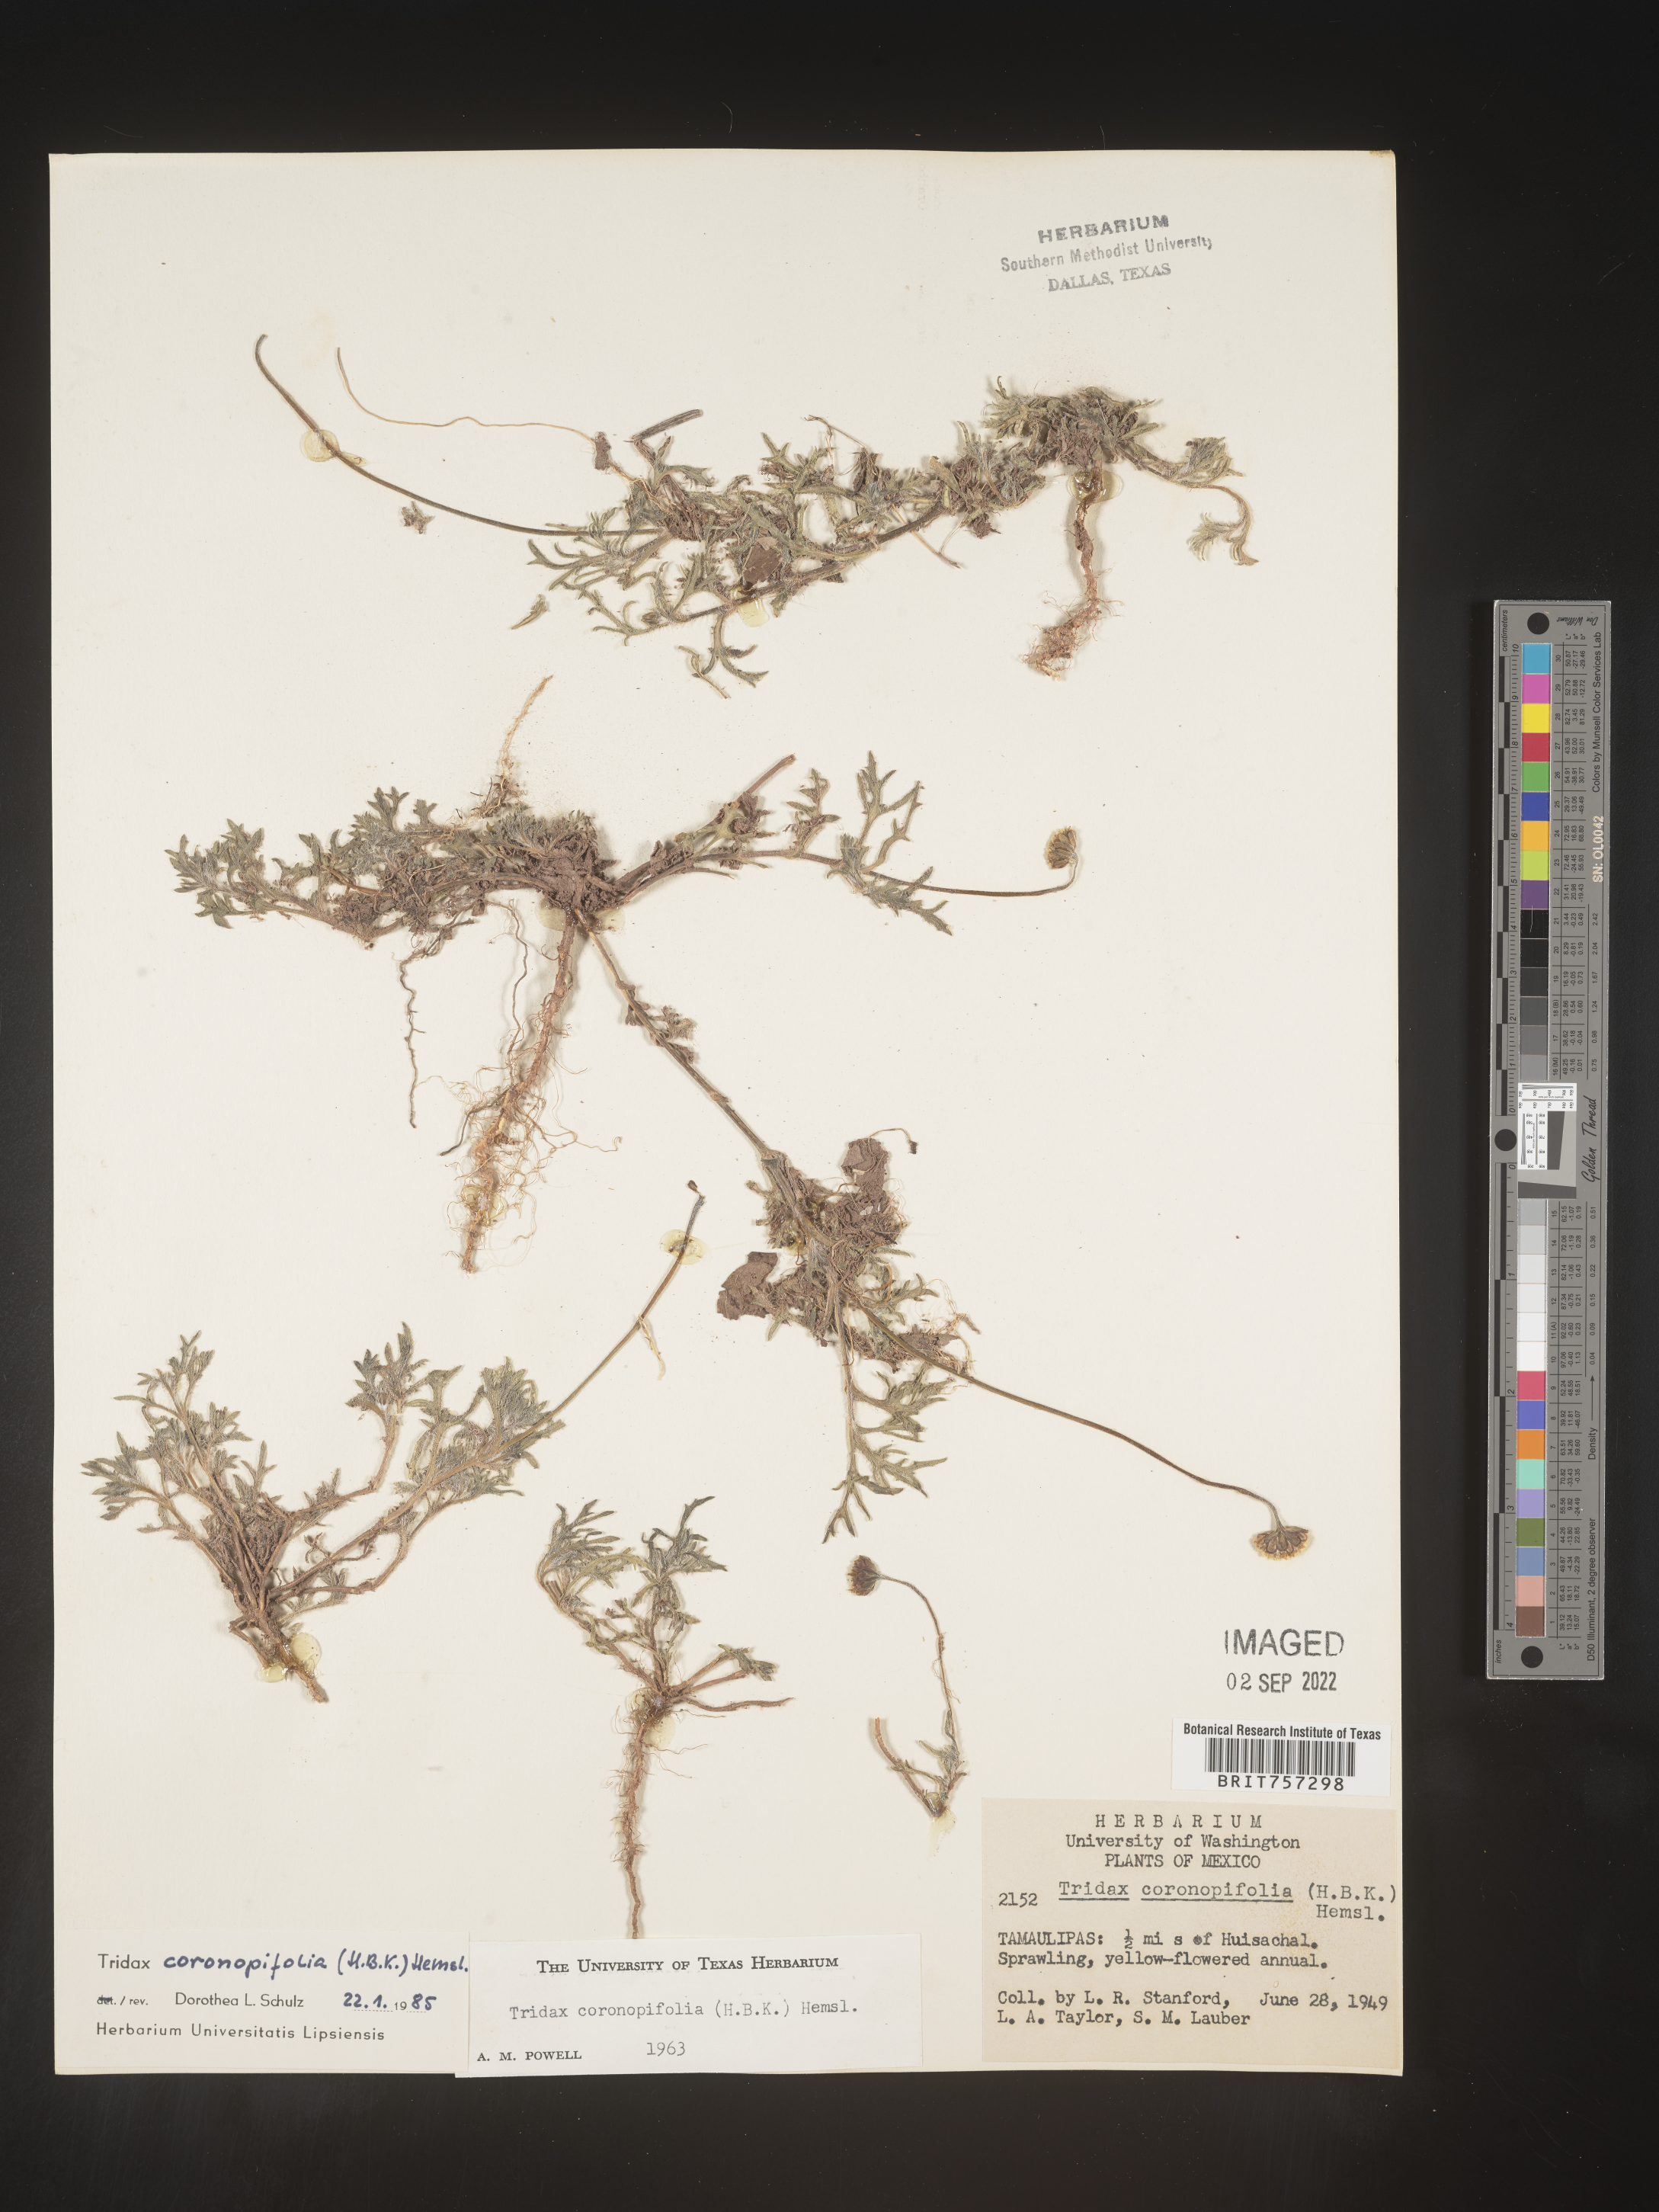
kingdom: Plantae
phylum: Tracheophyta
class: Magnoliopsida
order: Asterales
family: Asteraceae
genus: Tridax
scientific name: Tridax
